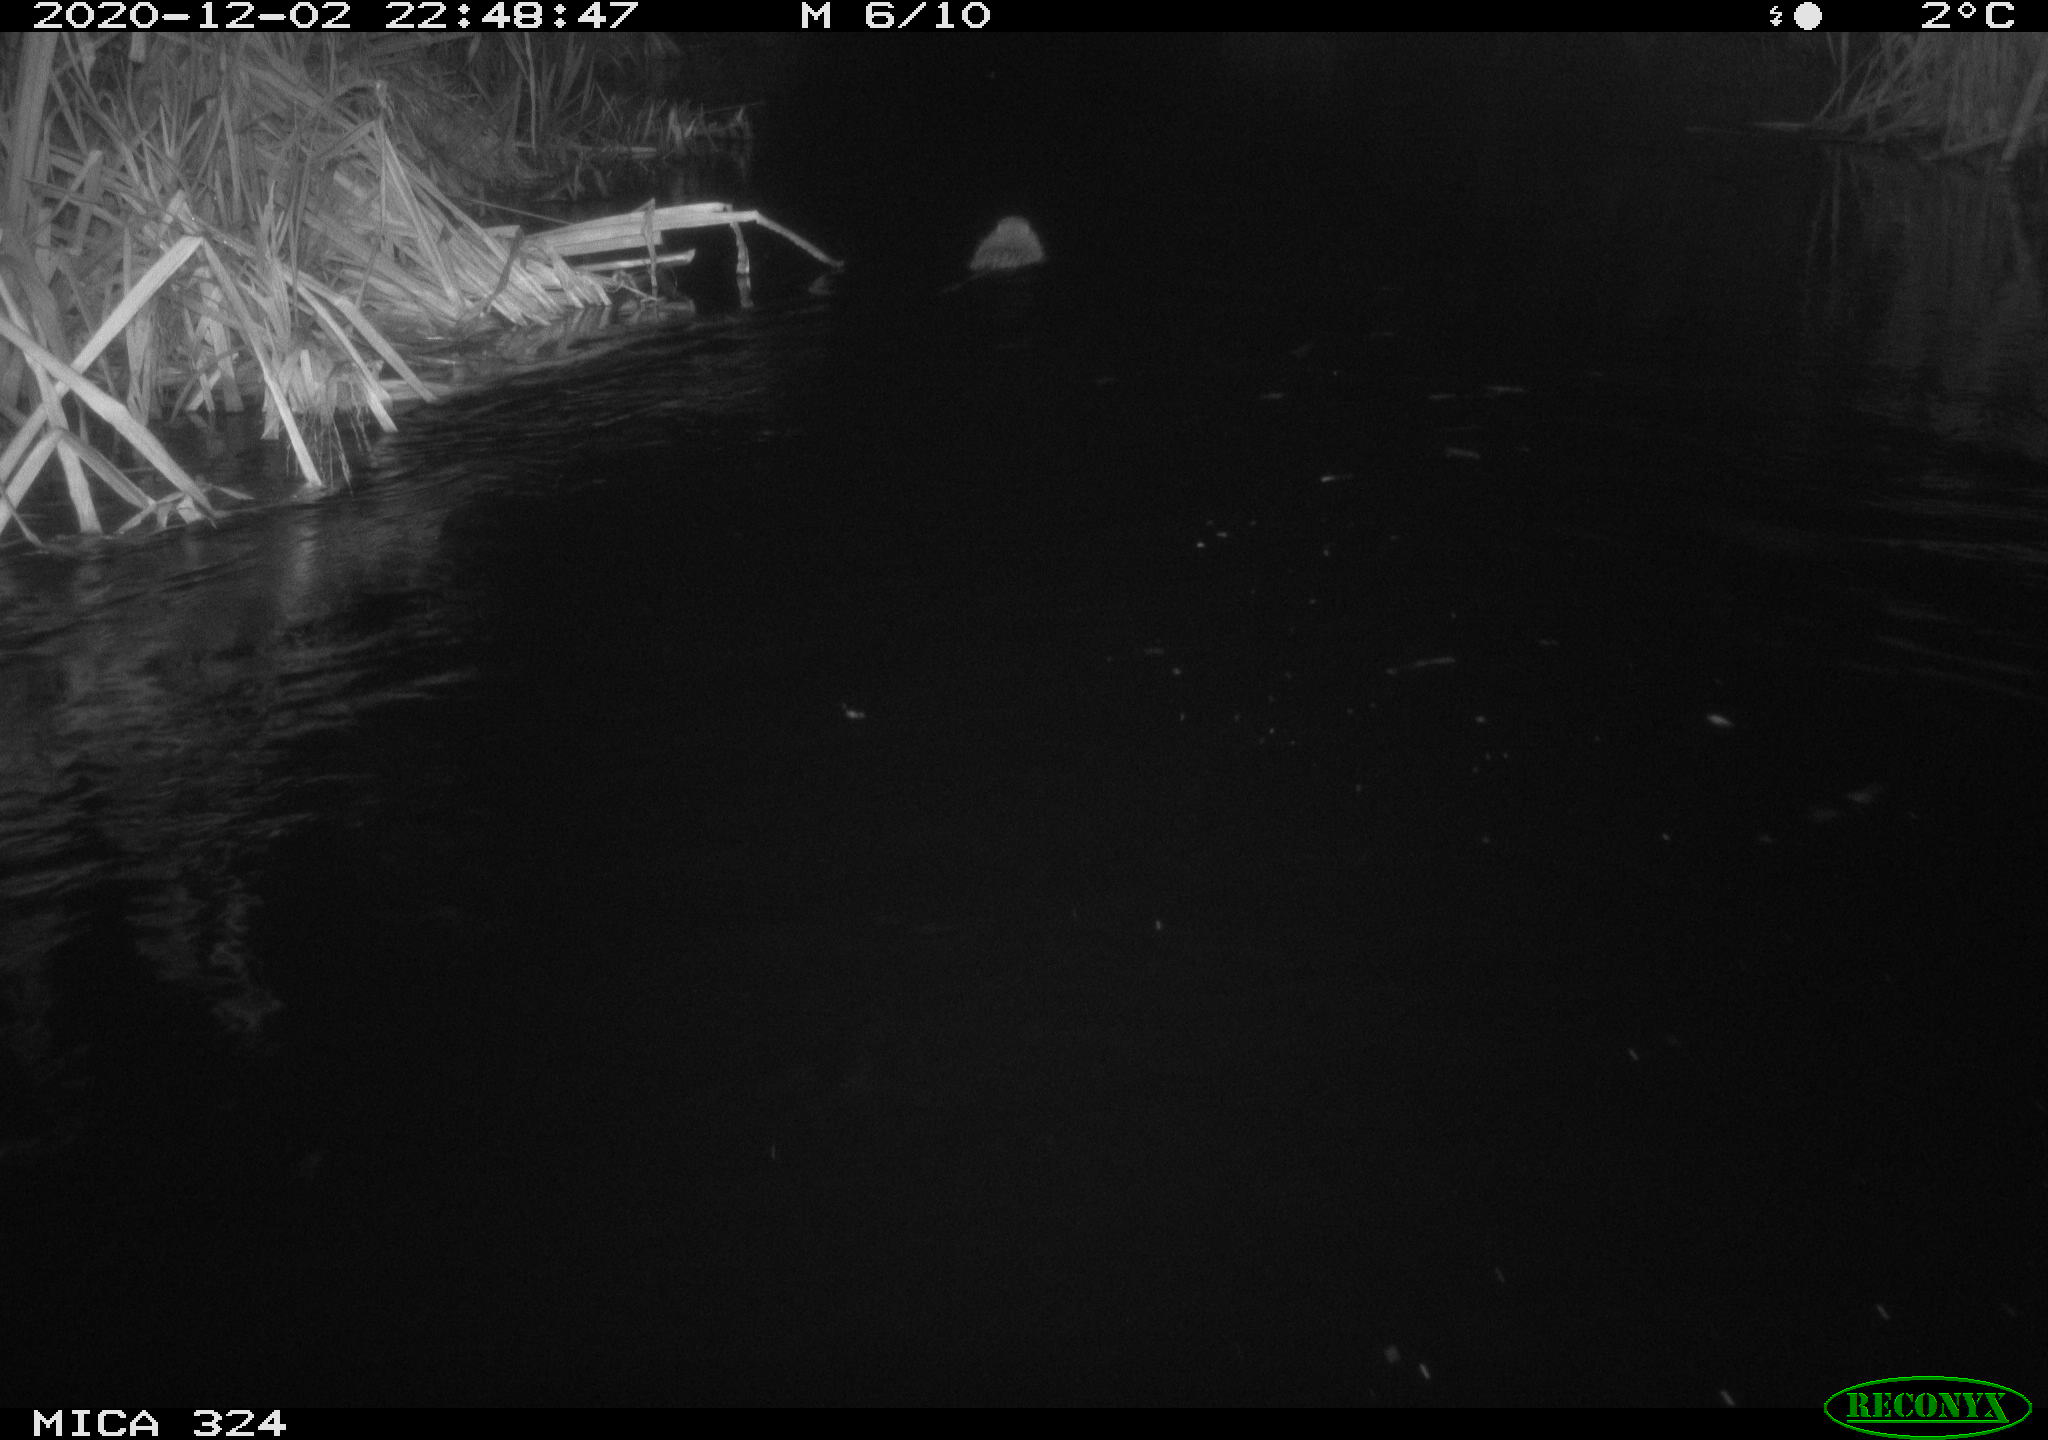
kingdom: Animalia
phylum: Chordata
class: Mammalia
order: Rodentia
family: Myocastoridae
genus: Myocastor
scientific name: Myocastor coypus
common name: Coypu
